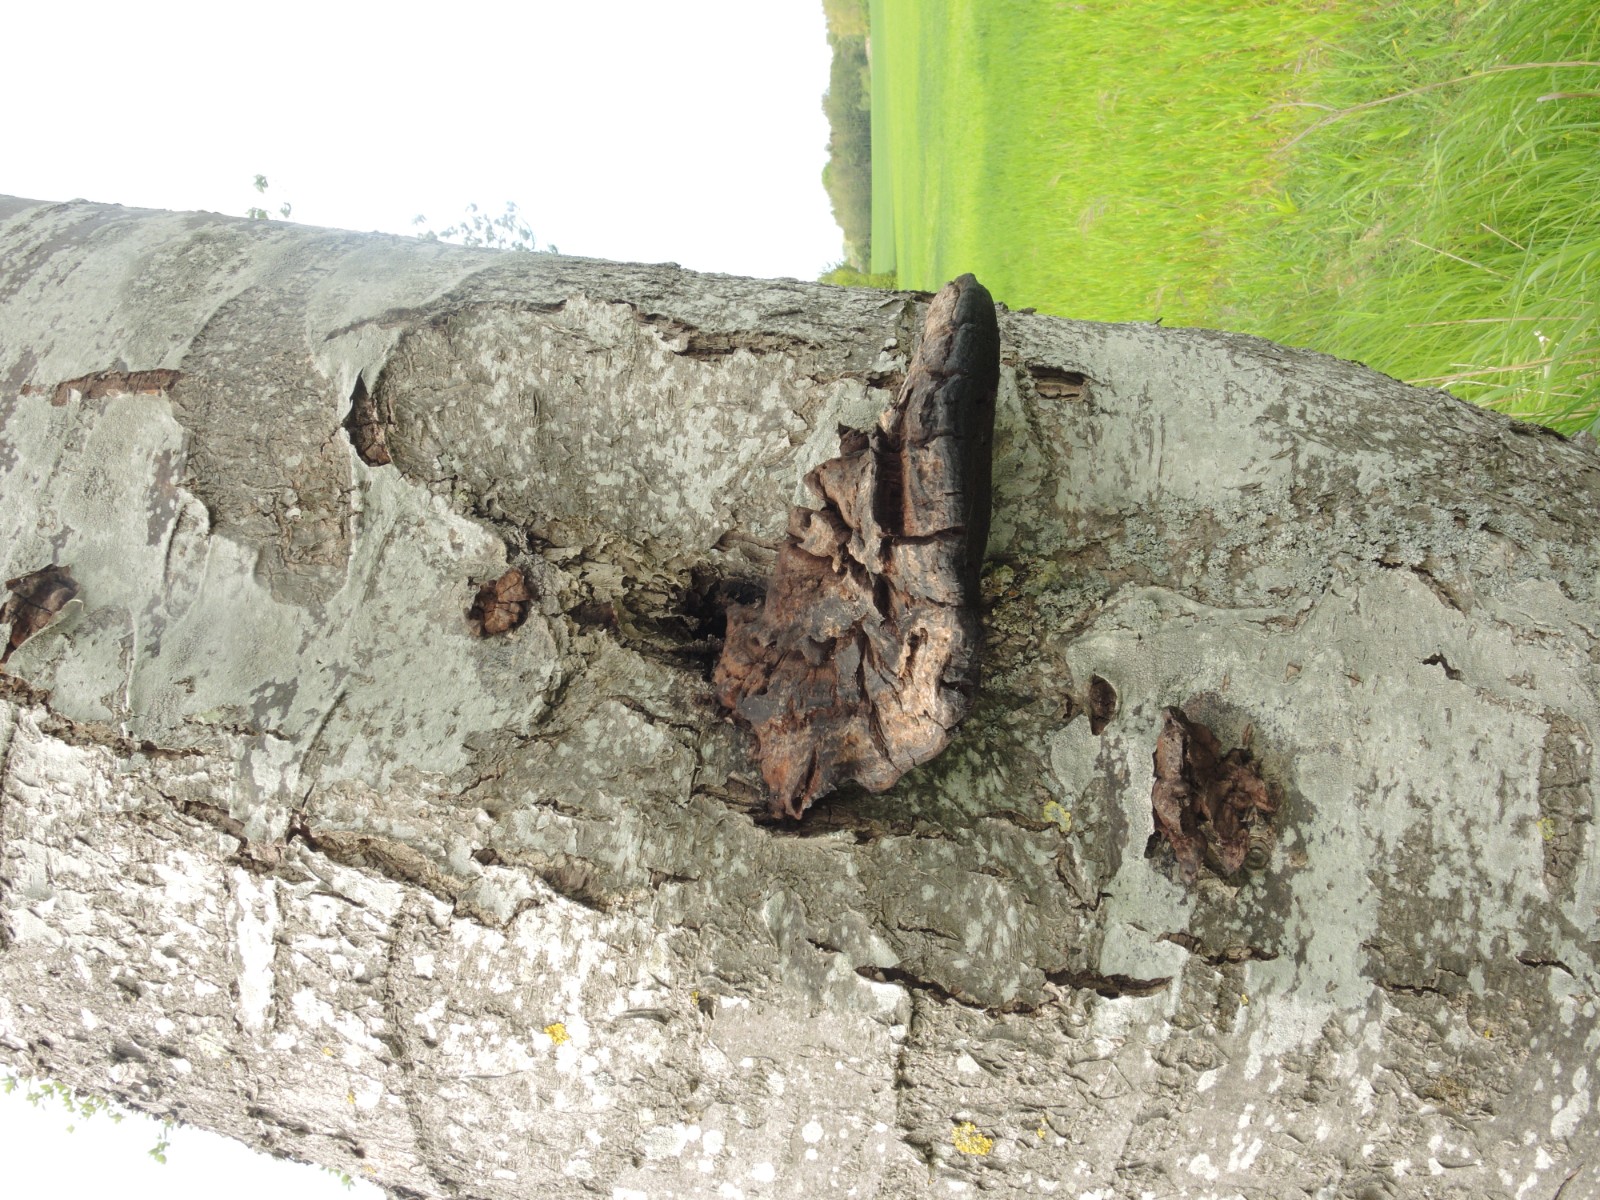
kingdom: Fungi
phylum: Basidiomycota
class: Agaricomycetes
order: Hymenochaetales
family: Hymenochaetaceae
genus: Inonotus
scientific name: Inonotus hispidus
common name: børstehåret spejlporesvamp
